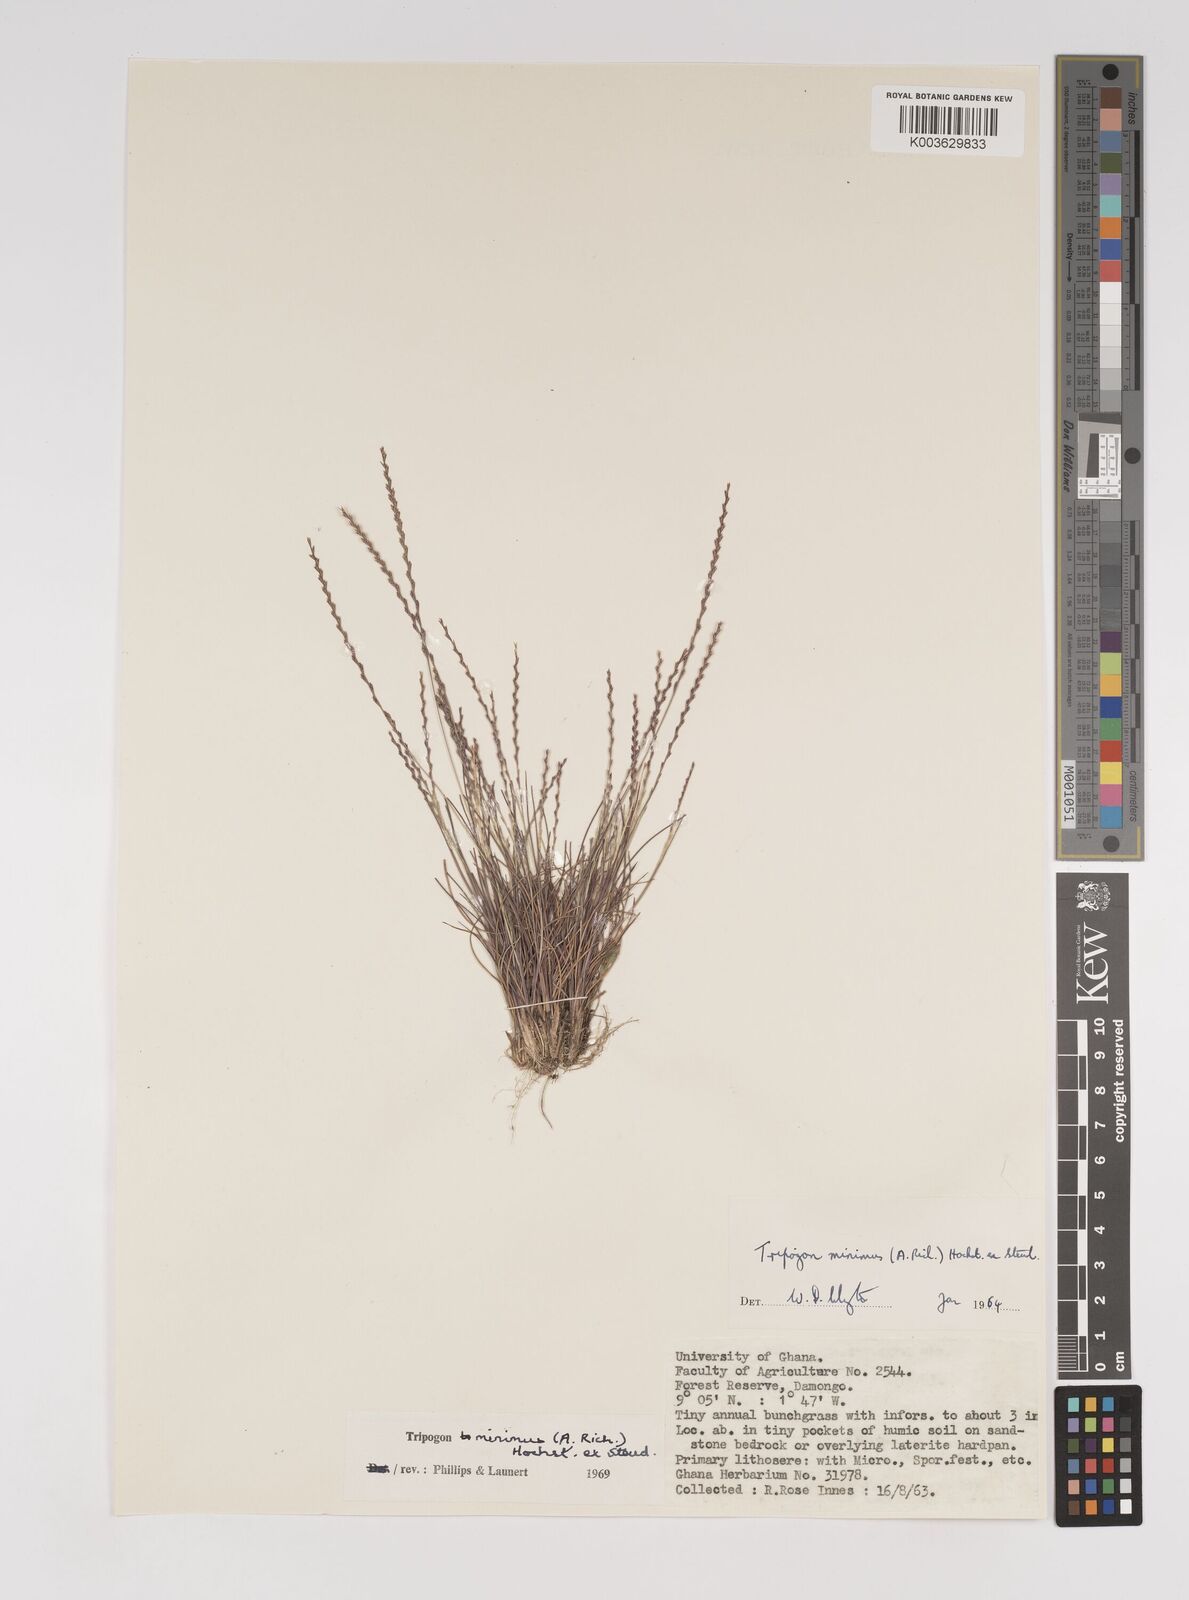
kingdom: Plantae
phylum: Tracheophyta
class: Liliopsida
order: Poales
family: Poaceae
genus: Tripogonella
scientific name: Tripogonella minima
